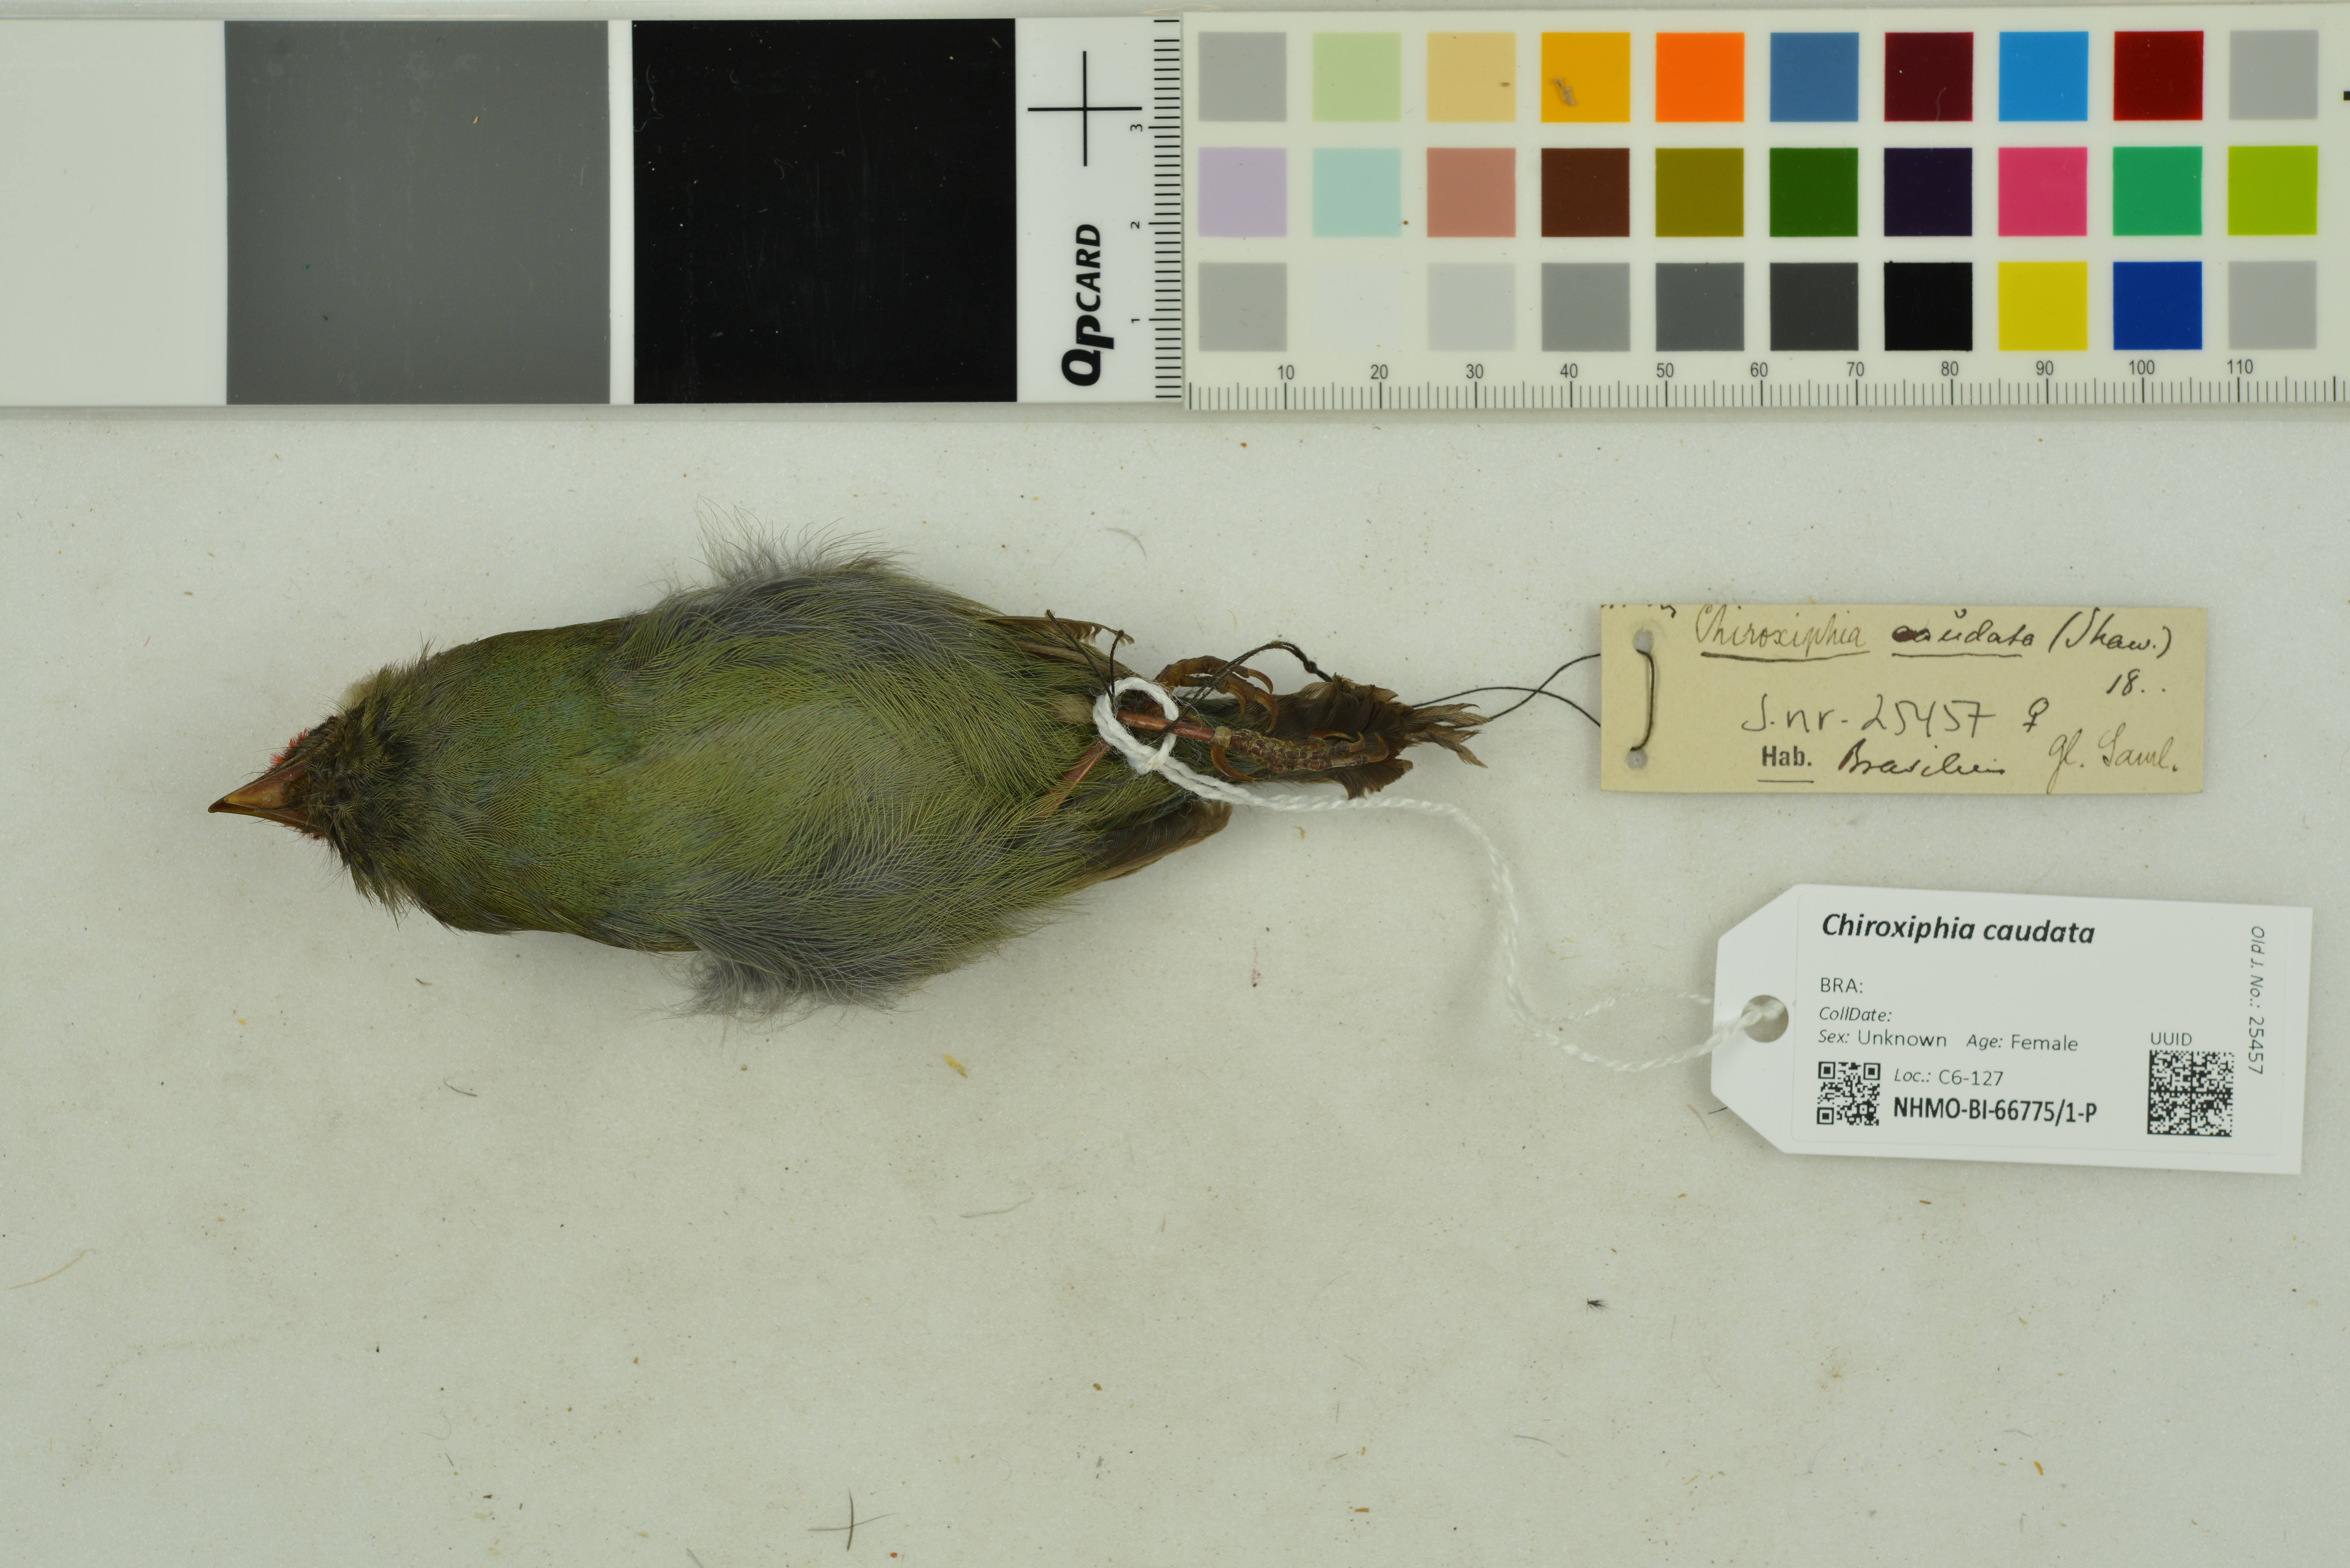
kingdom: Animalia
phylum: Chordata
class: Aves
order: Passeriformes
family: Pipridae
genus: Chiroxiphia
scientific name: Chiroxiphia caudata
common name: Blue manakin
